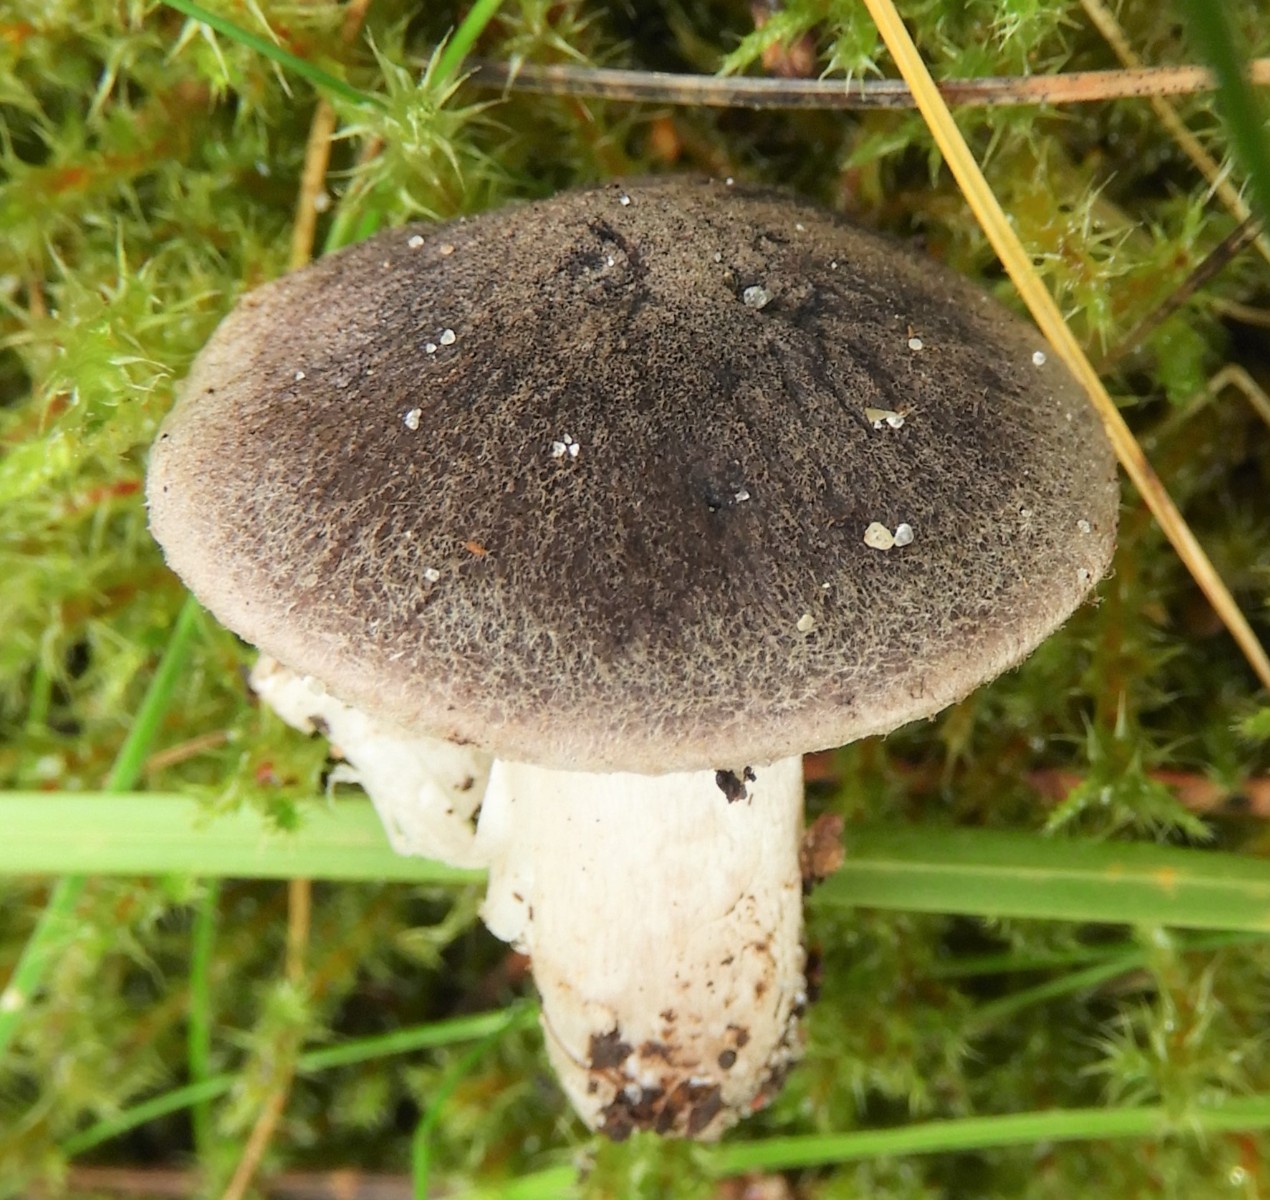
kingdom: Fungi
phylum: Basidiomycota
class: Agaricomycetes
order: Agaricales
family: Tricholomataceae
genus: Tricholoma
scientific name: Tricholoma terreum
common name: jordfarvet ridderhat
